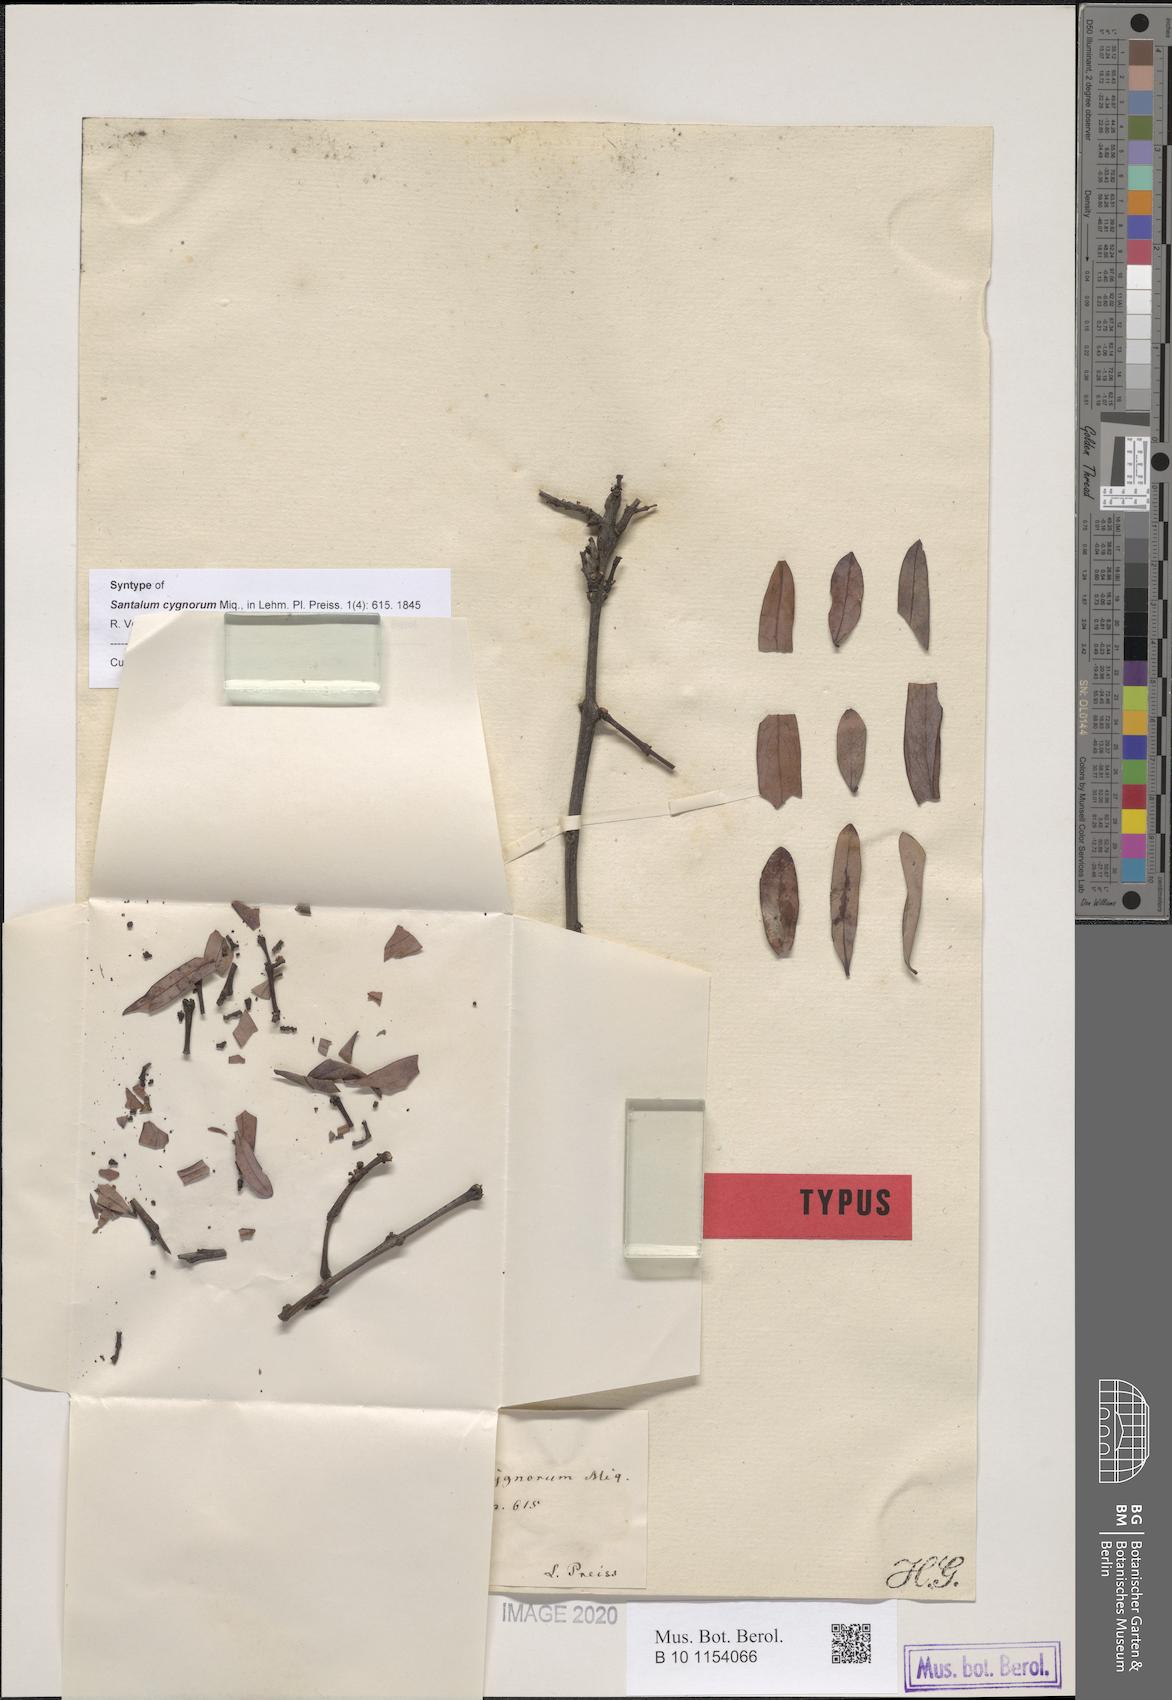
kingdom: Plantae
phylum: Tracheophyta
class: Magnoliopsida
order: Santalales
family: Santalaceae
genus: Santalum
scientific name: Santalum spicatum
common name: West australian sandalwood
